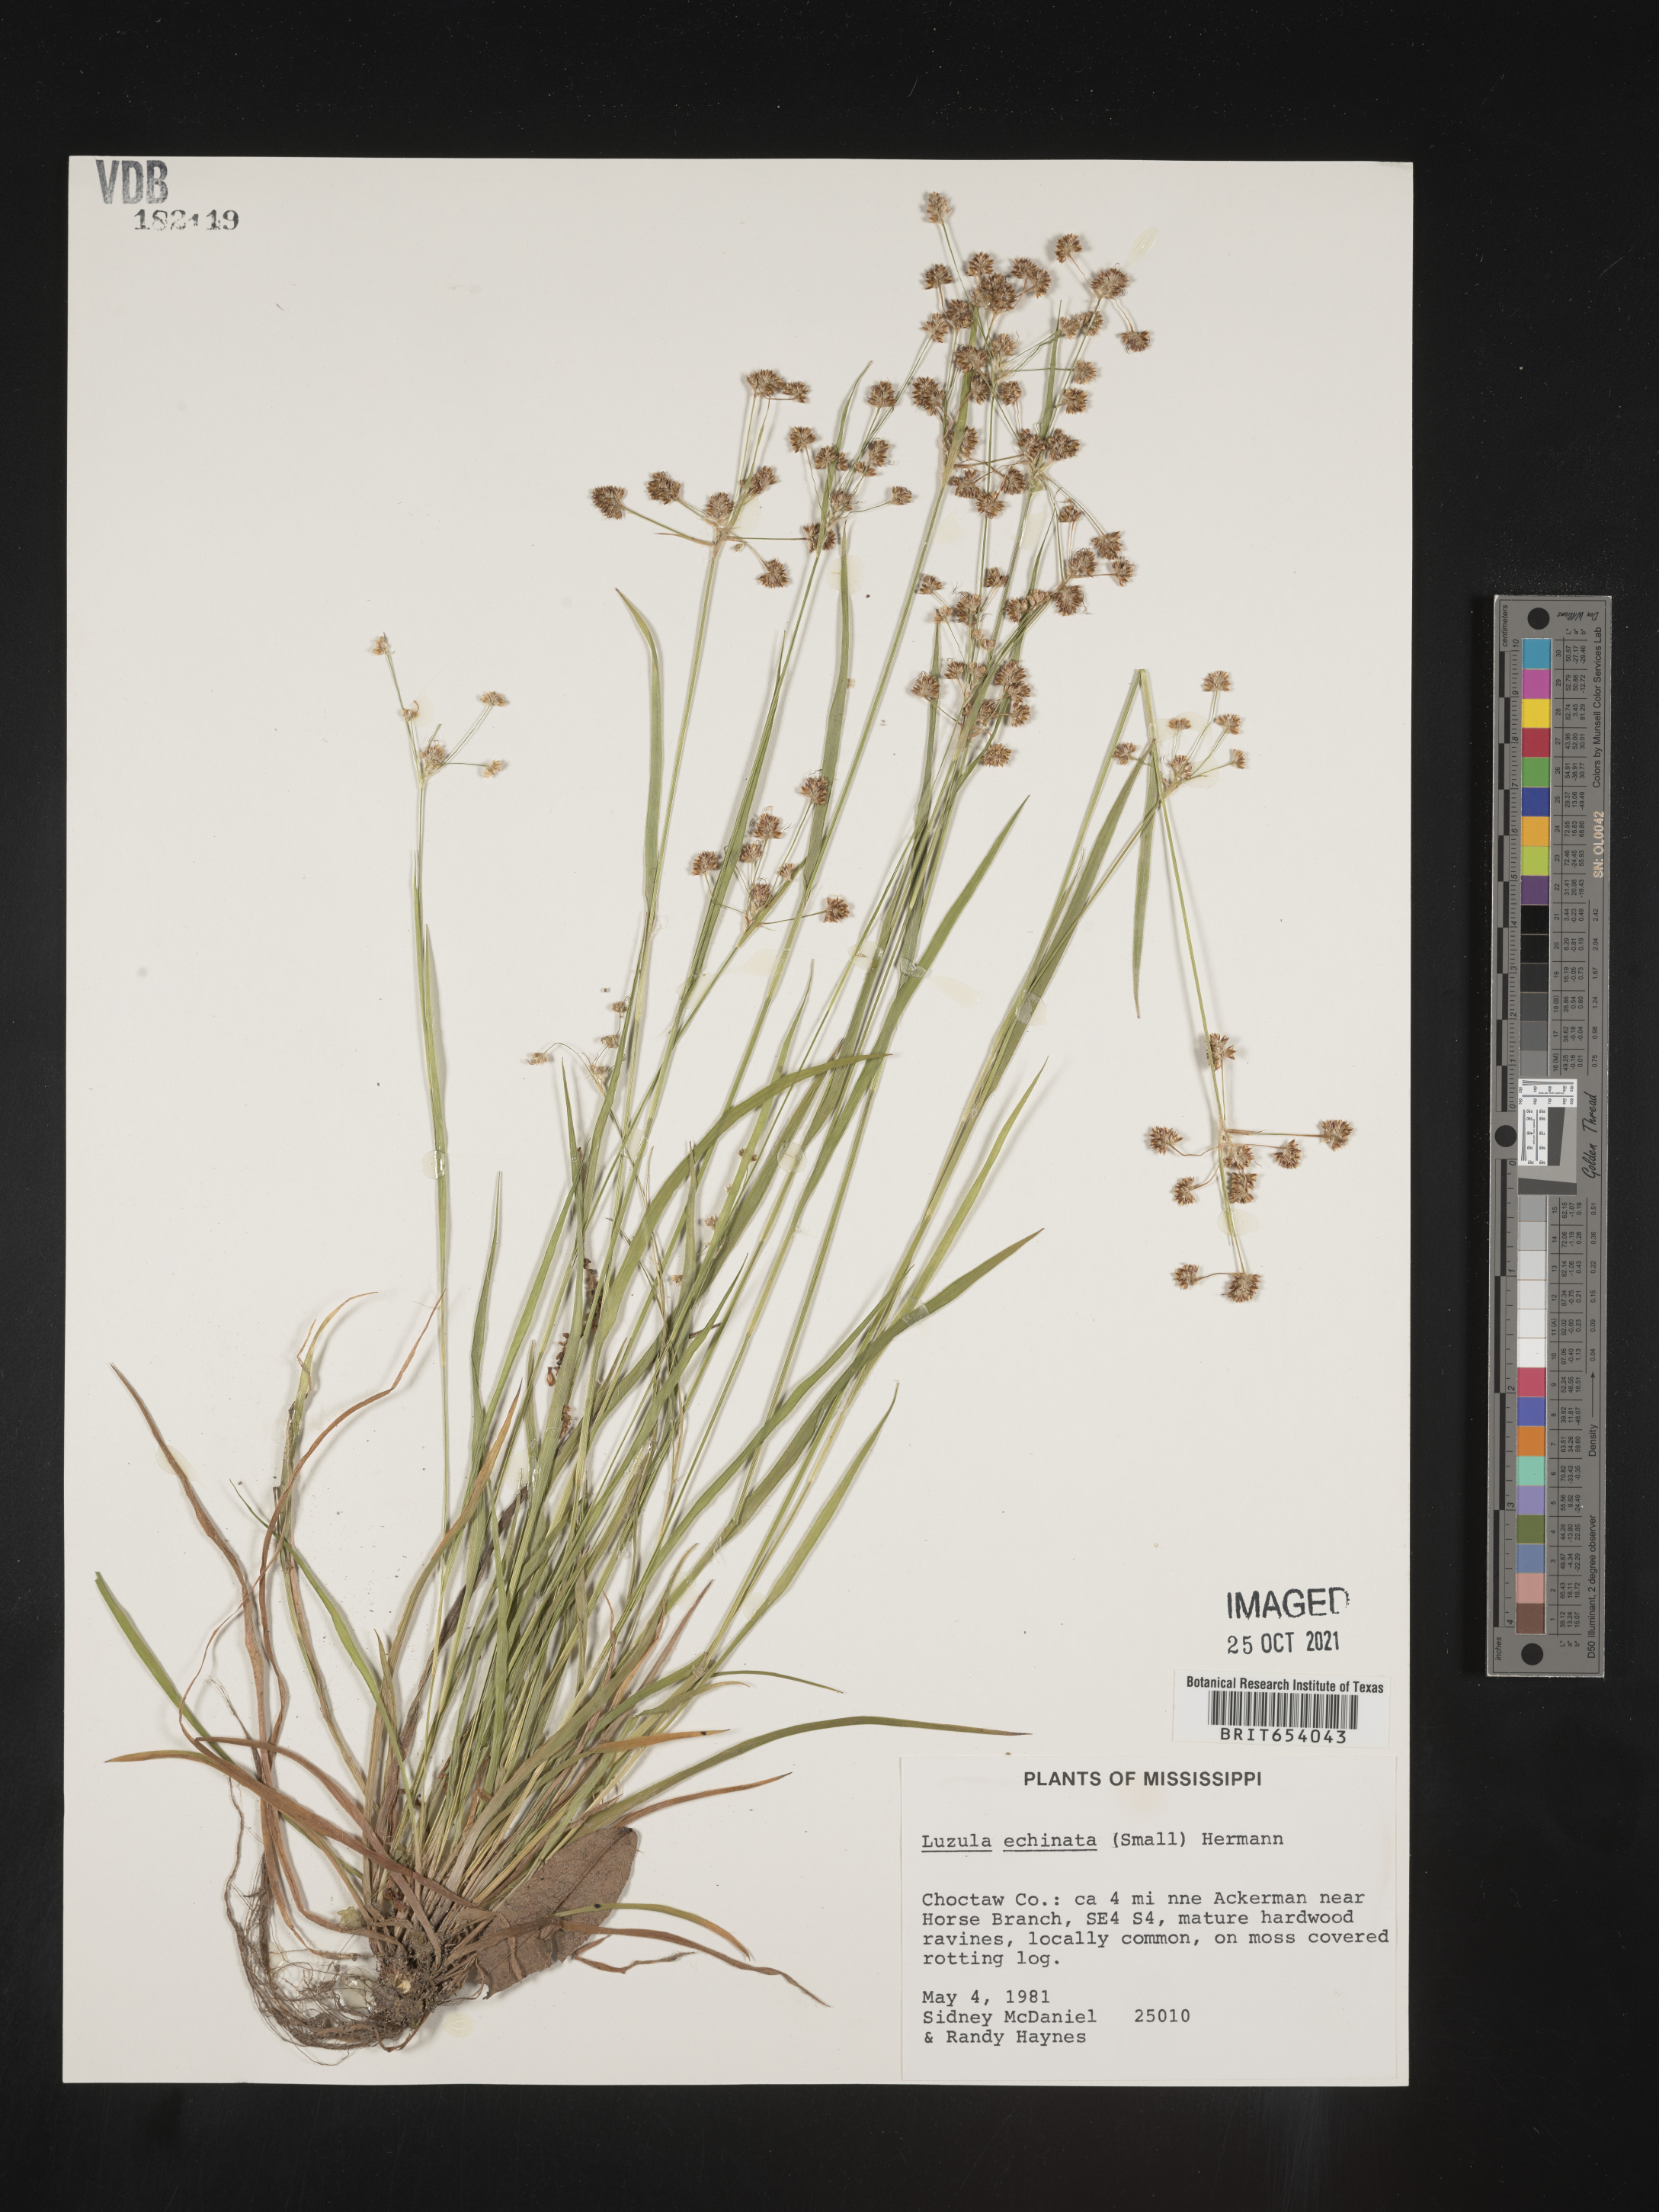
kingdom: Plantae
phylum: Tracheophyta
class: Liliopsida
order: Poales
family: Juncaceae
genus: Luzula
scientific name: Luzula echinata
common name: Hedgehog woodrush
